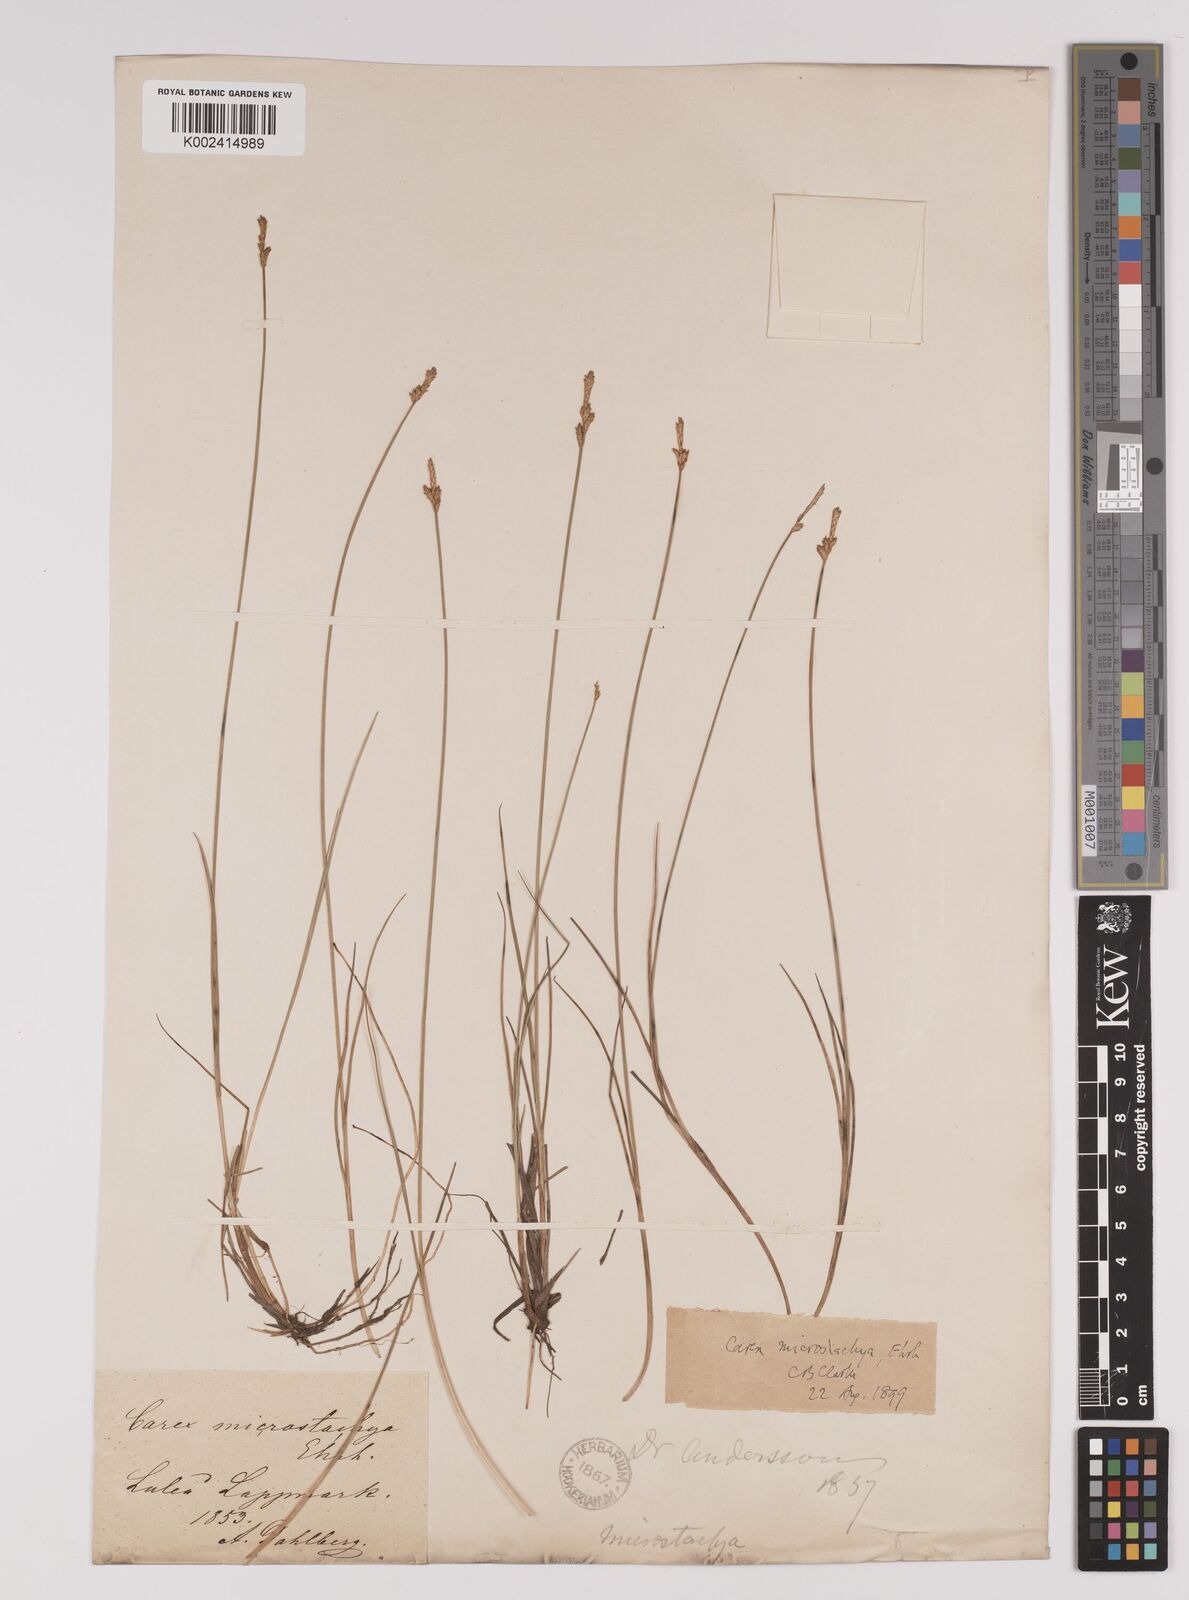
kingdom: Plantae
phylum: Tracheophyta
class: Liliopsida
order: Poales
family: Cyperaceae
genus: Carex
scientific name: Carex dioica
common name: Dioecious sedge
